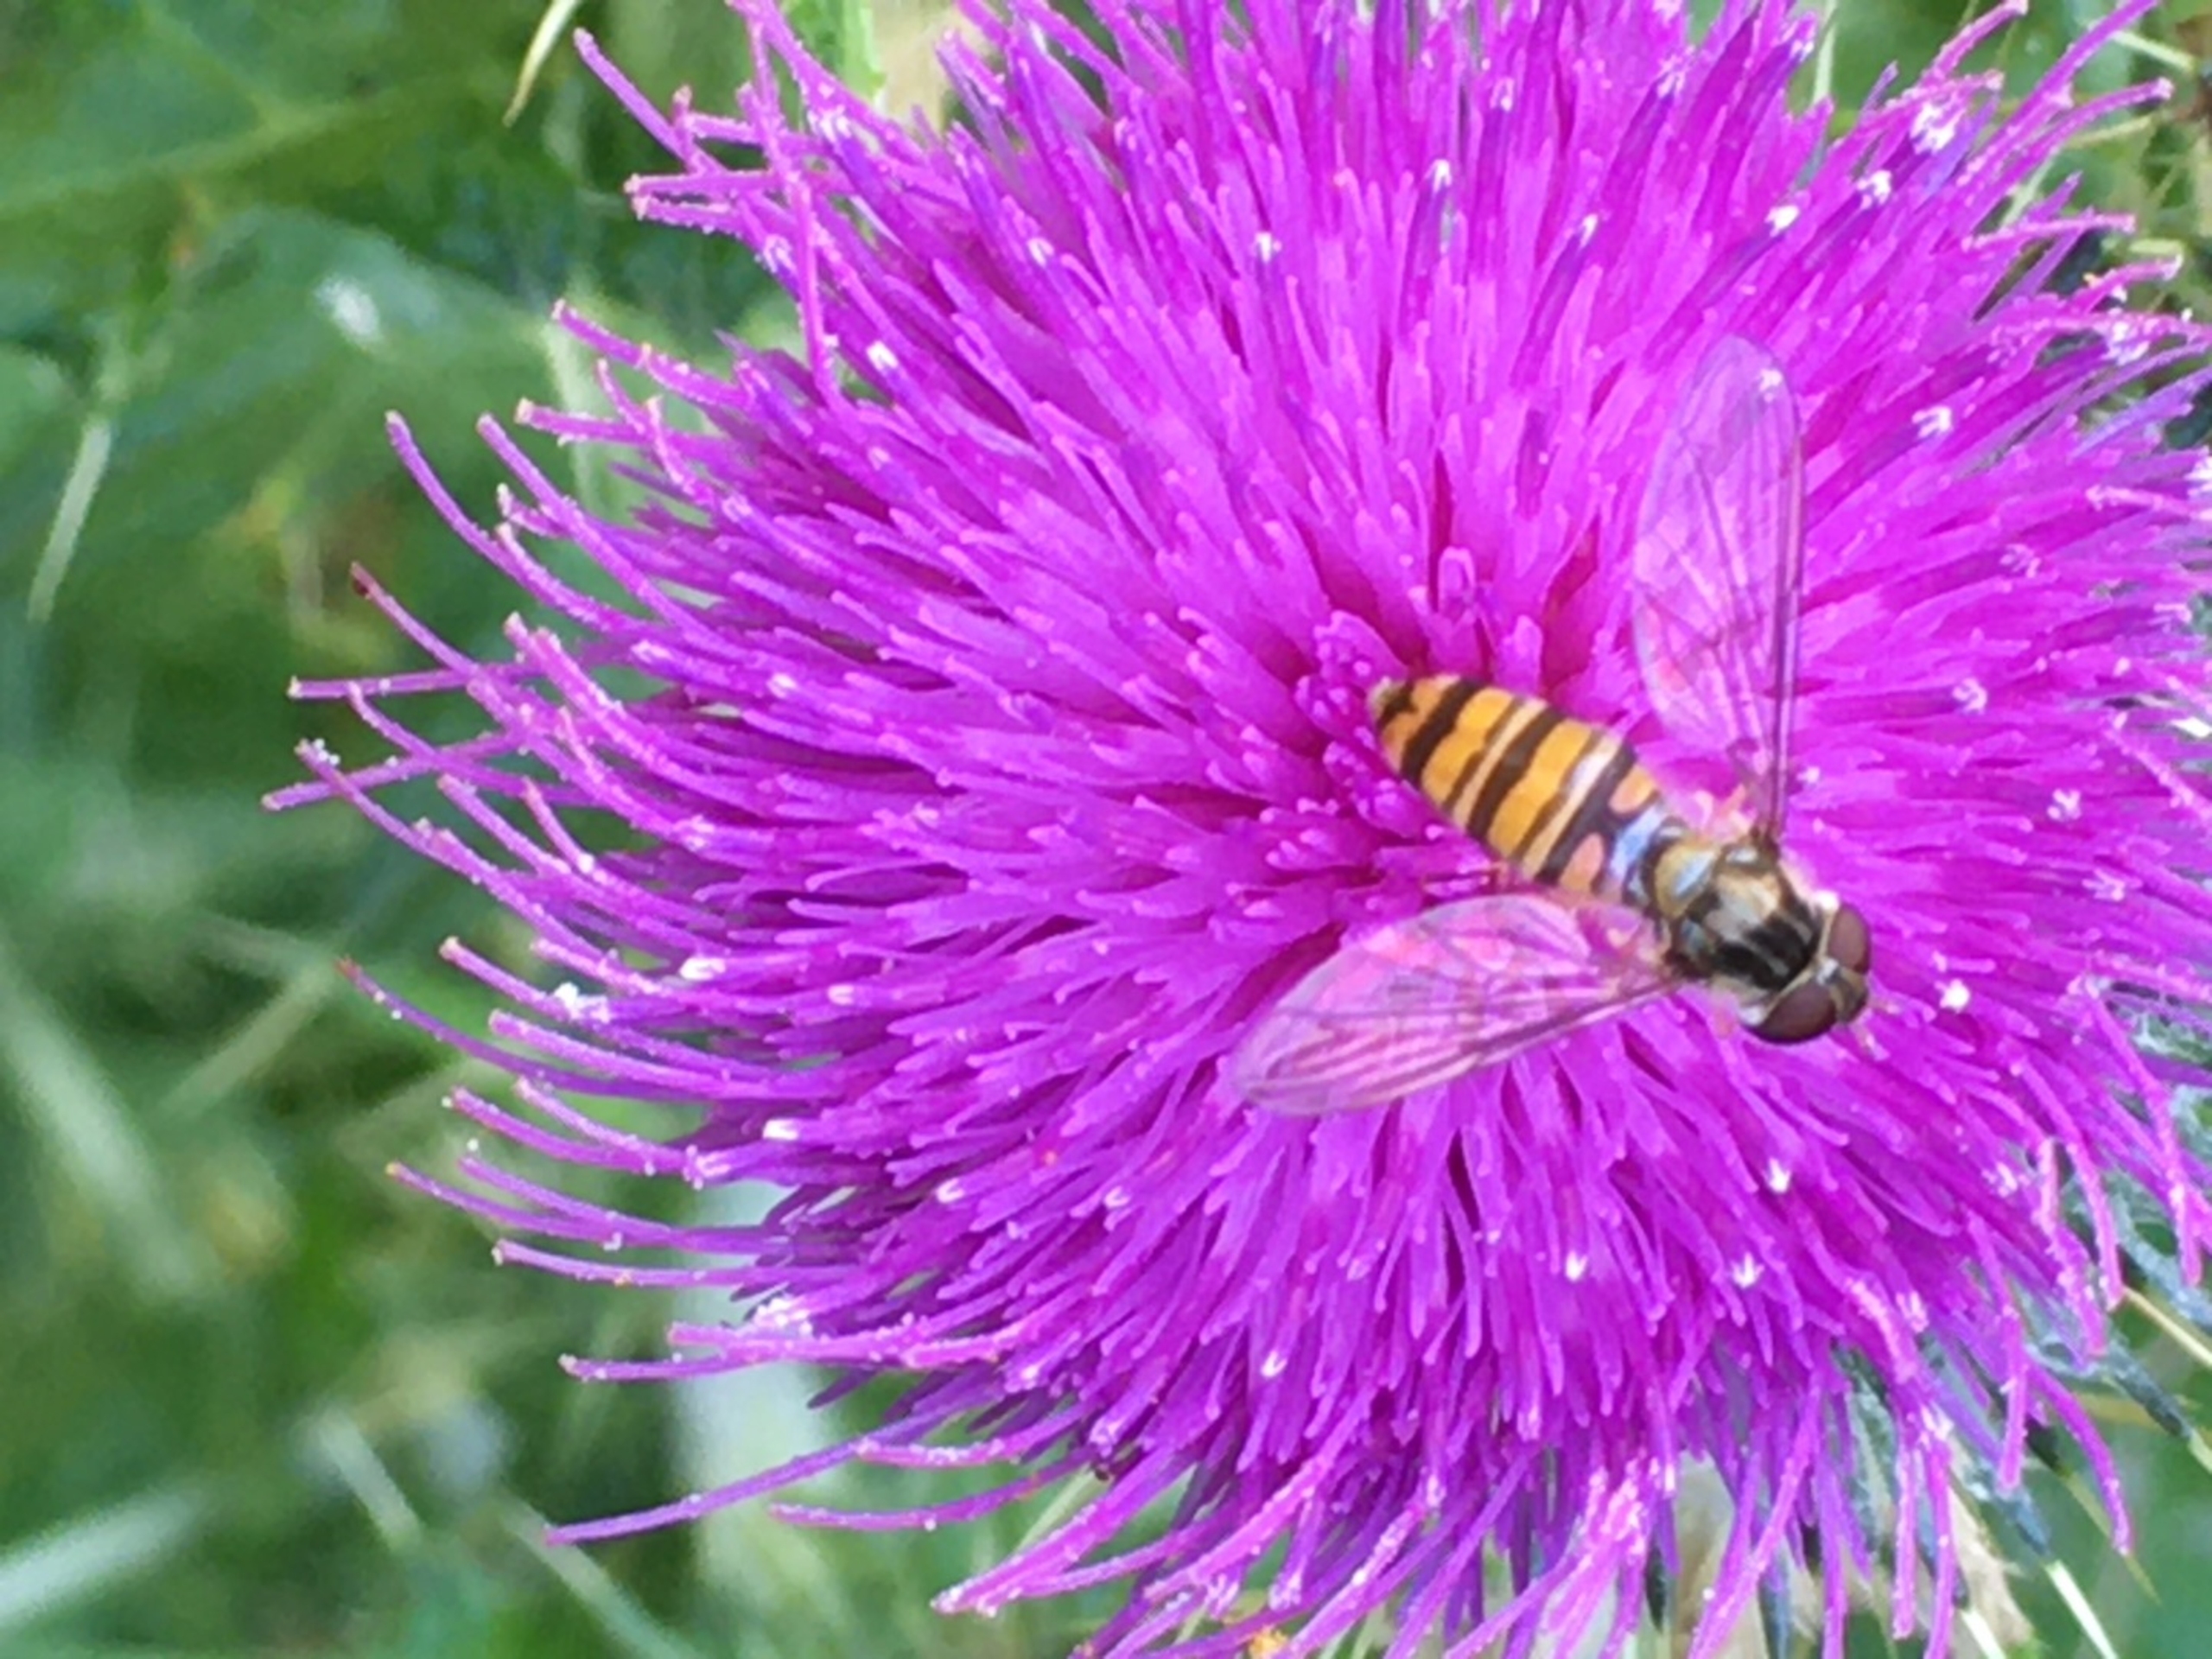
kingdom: Animalia
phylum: Arthropoda
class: Insecta
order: Diptera
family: Syrphidae
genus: Episyrphus
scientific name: Episyrphus balteatus
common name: Dobbeltbåndet svirreflue
